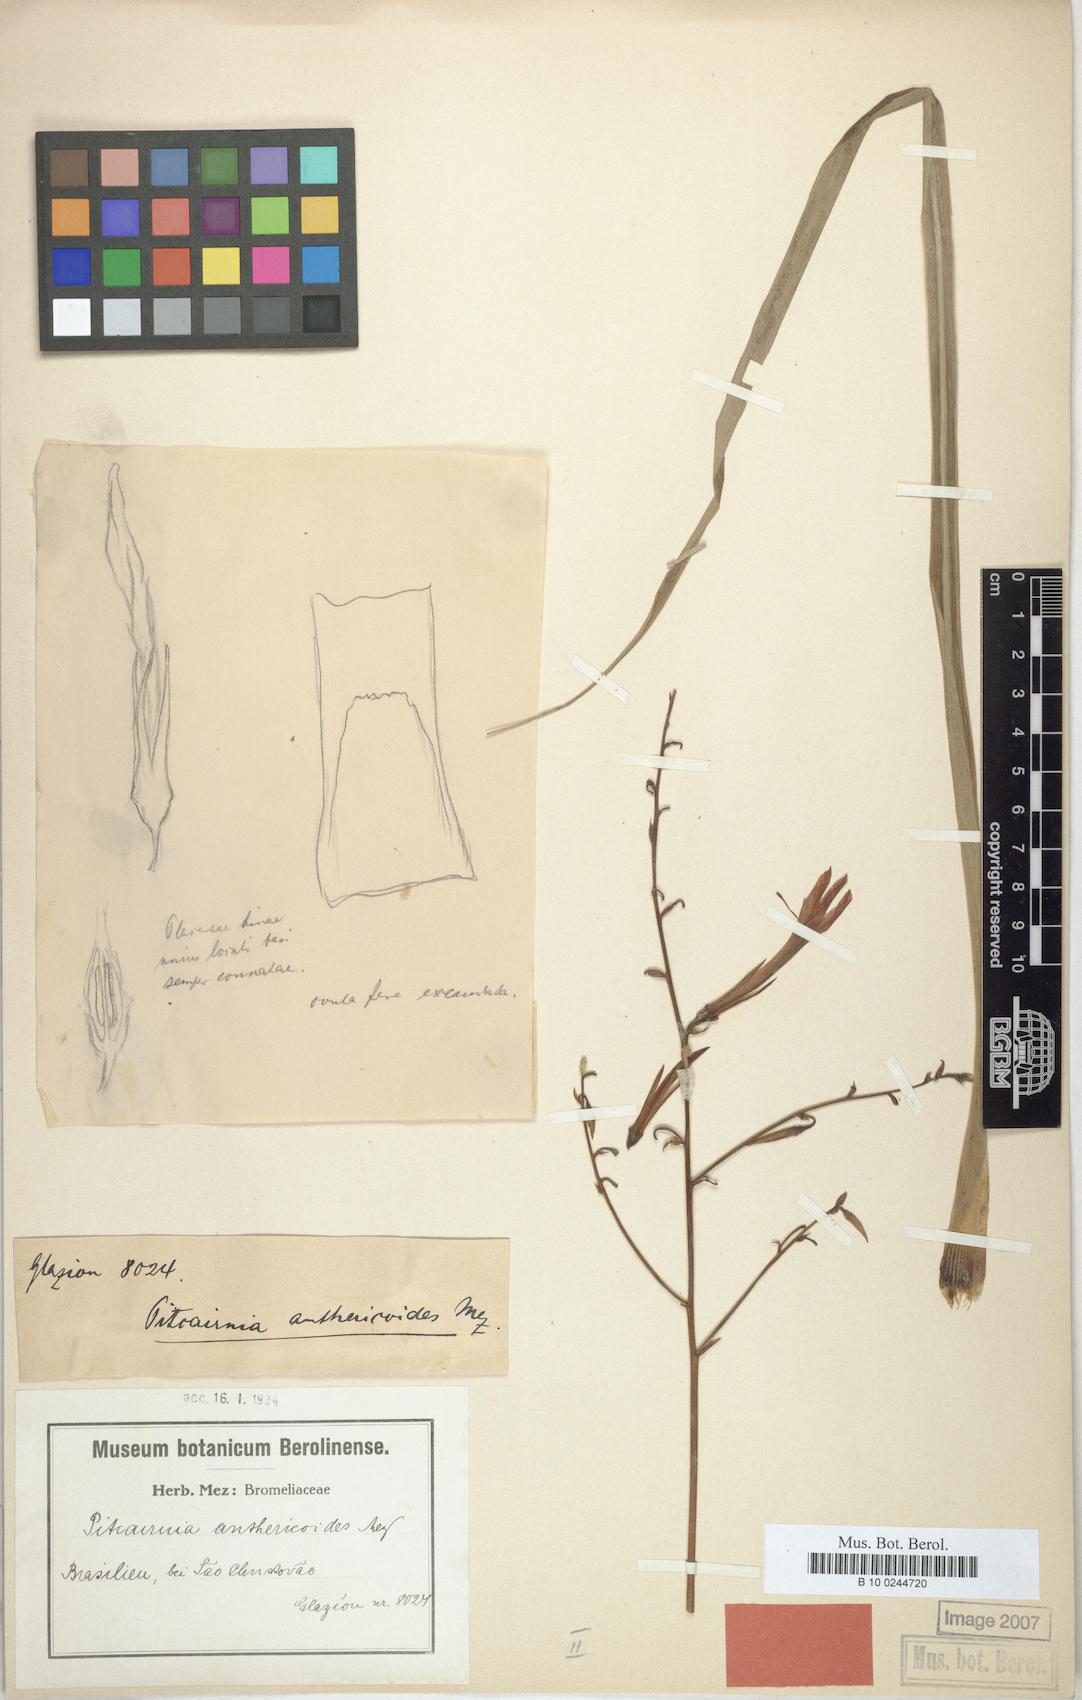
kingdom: Plantae
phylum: Tracheophyta
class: Liliopsida
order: Poales
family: Bromeliaceae
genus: Pitcairnia
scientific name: Pitcairnia integrifolia
